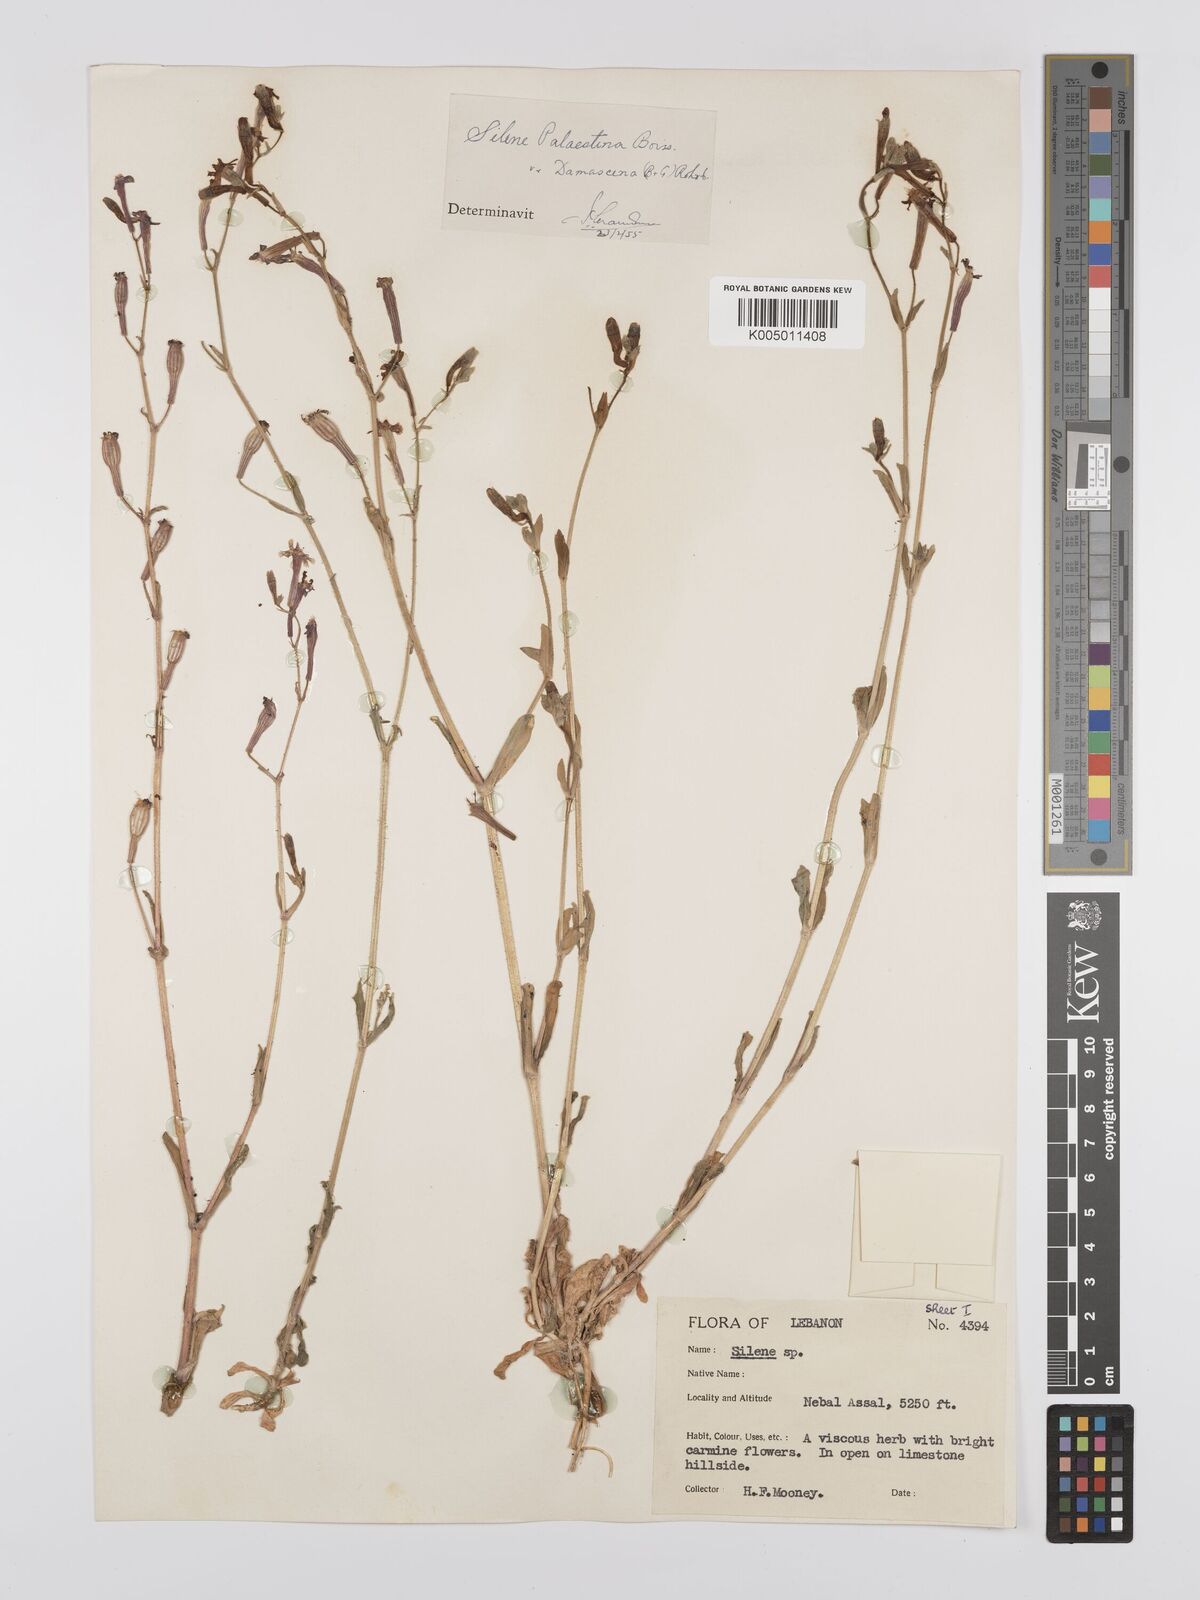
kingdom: Plantae
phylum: Tracheophyta
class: Magnoliopsida
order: Caryophyllales
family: Caryophyllaceae
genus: Silene
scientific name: Silene damascena
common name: Damascus catchfly
